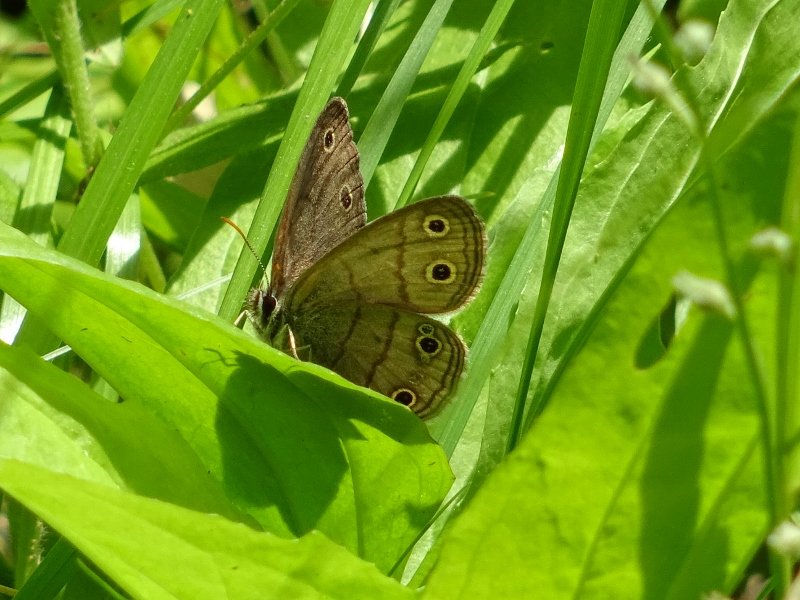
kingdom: Animalia
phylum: Arthropoda
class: Insecta
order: Lepidoptera
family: Nymphalidae
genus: Euptychia
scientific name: Euptychia cymela
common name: Little Wood Satyr
